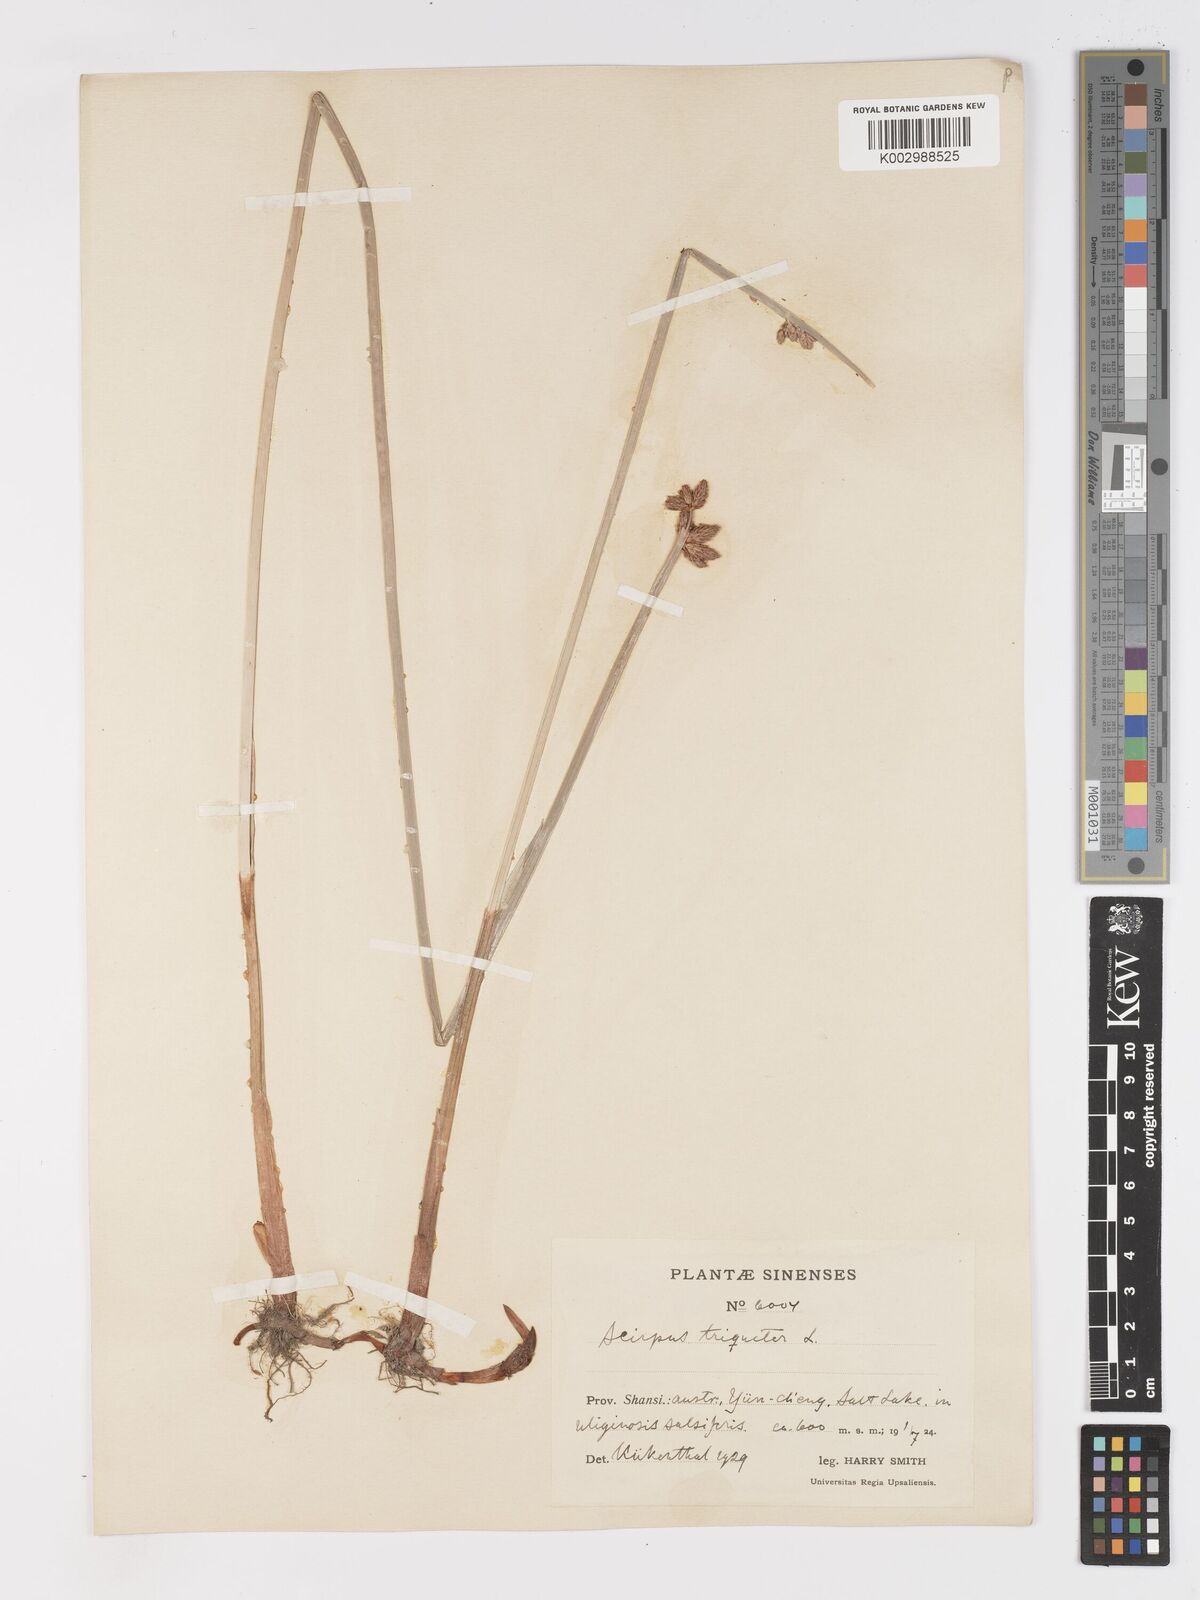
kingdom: Plantae
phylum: Tracheophyta
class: Liliopsida
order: Poales
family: Cyperaceae
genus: Schoenoplectus
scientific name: Schoenoplectus triqueter
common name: Triangular club-rush
